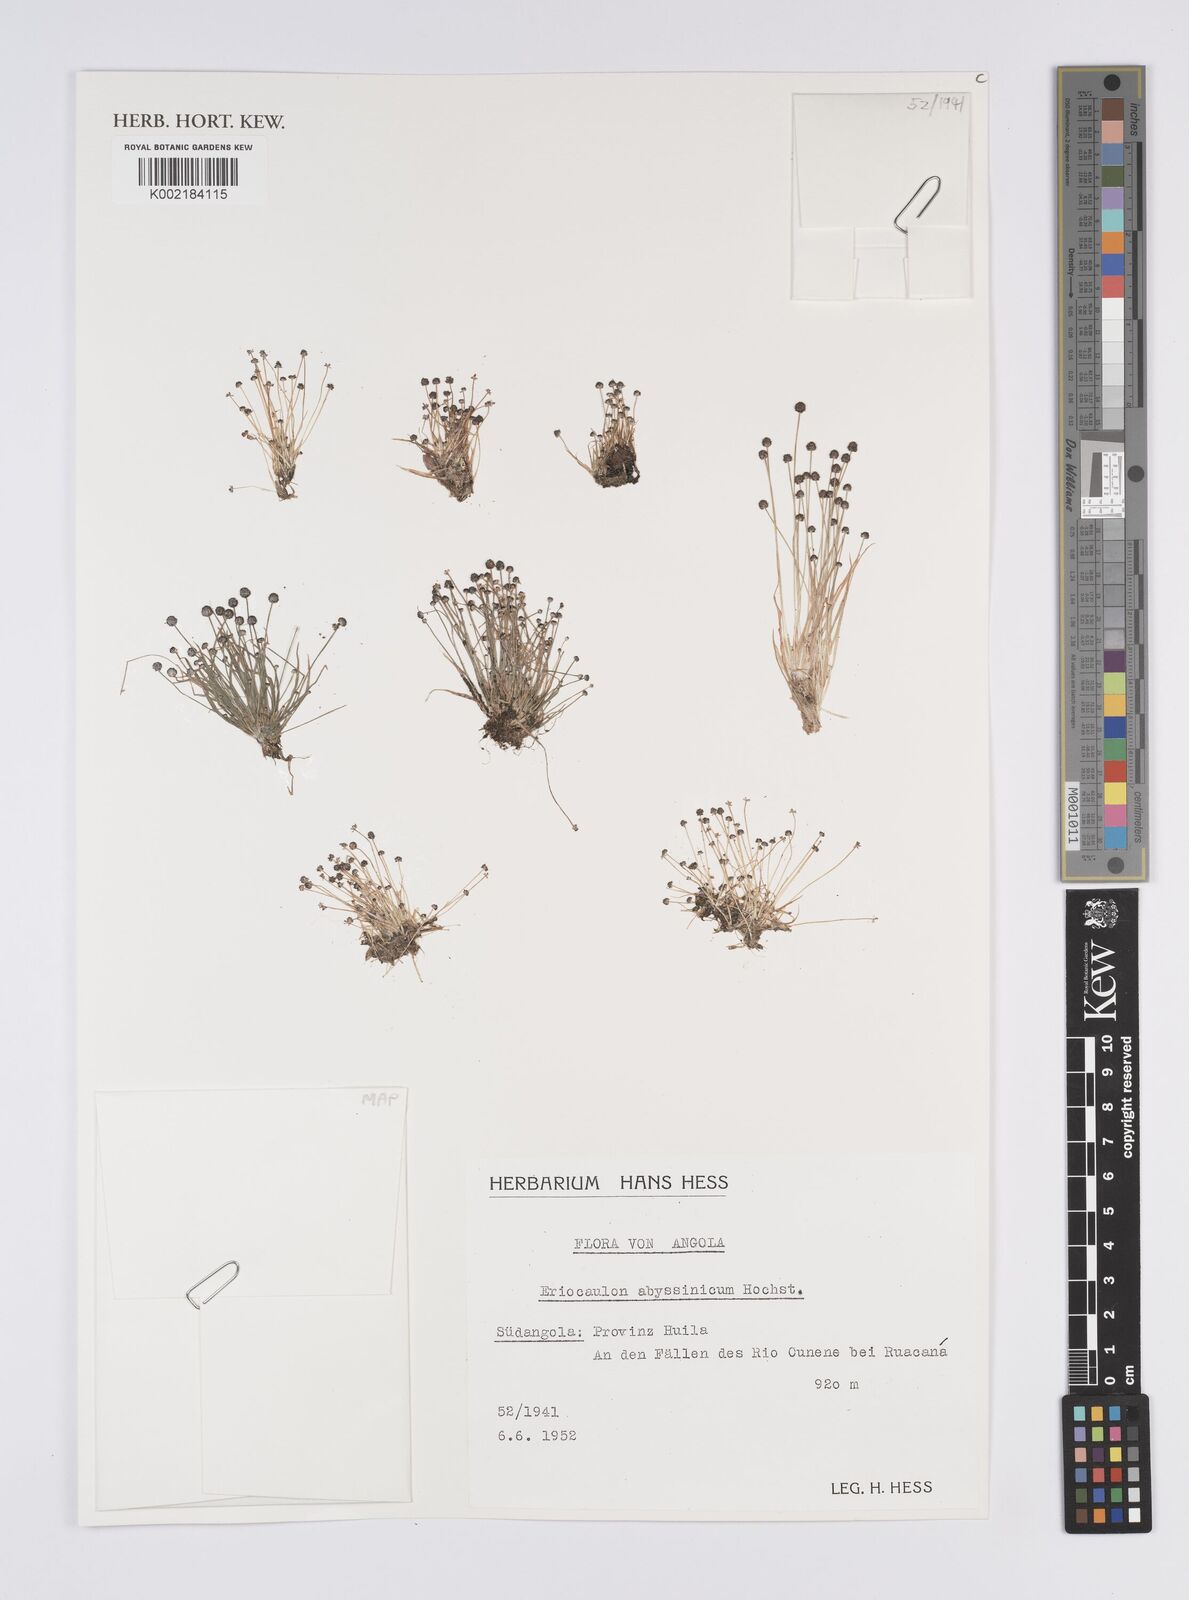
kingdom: Plantae
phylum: Tracheophyta
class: Liliopsida
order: Poales
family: Eriocaulaceae
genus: Eriocaulon
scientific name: Eriocaulon
